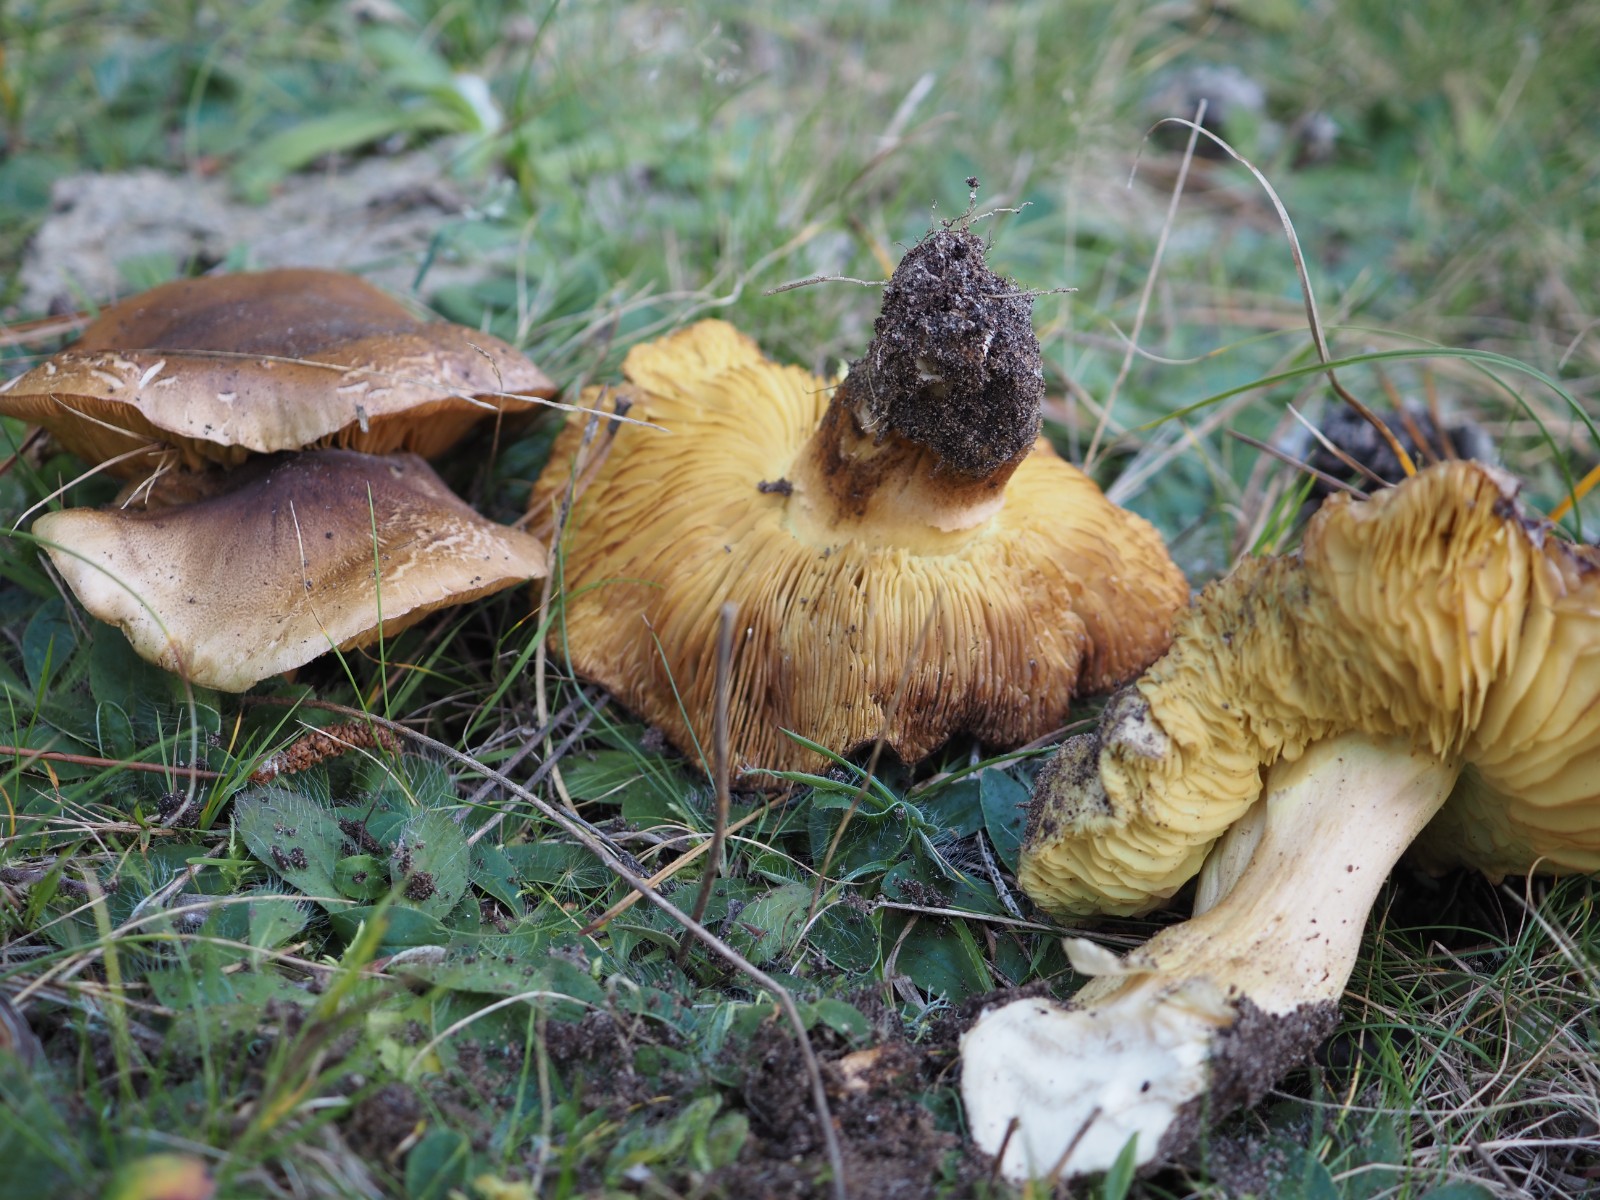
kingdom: Fungi
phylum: Basidiomycota
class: Agaricomycetes
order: Agaricales
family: Tricholomataceae
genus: Tricholoma
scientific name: Tricholoma equestre
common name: ægte ridderhat
